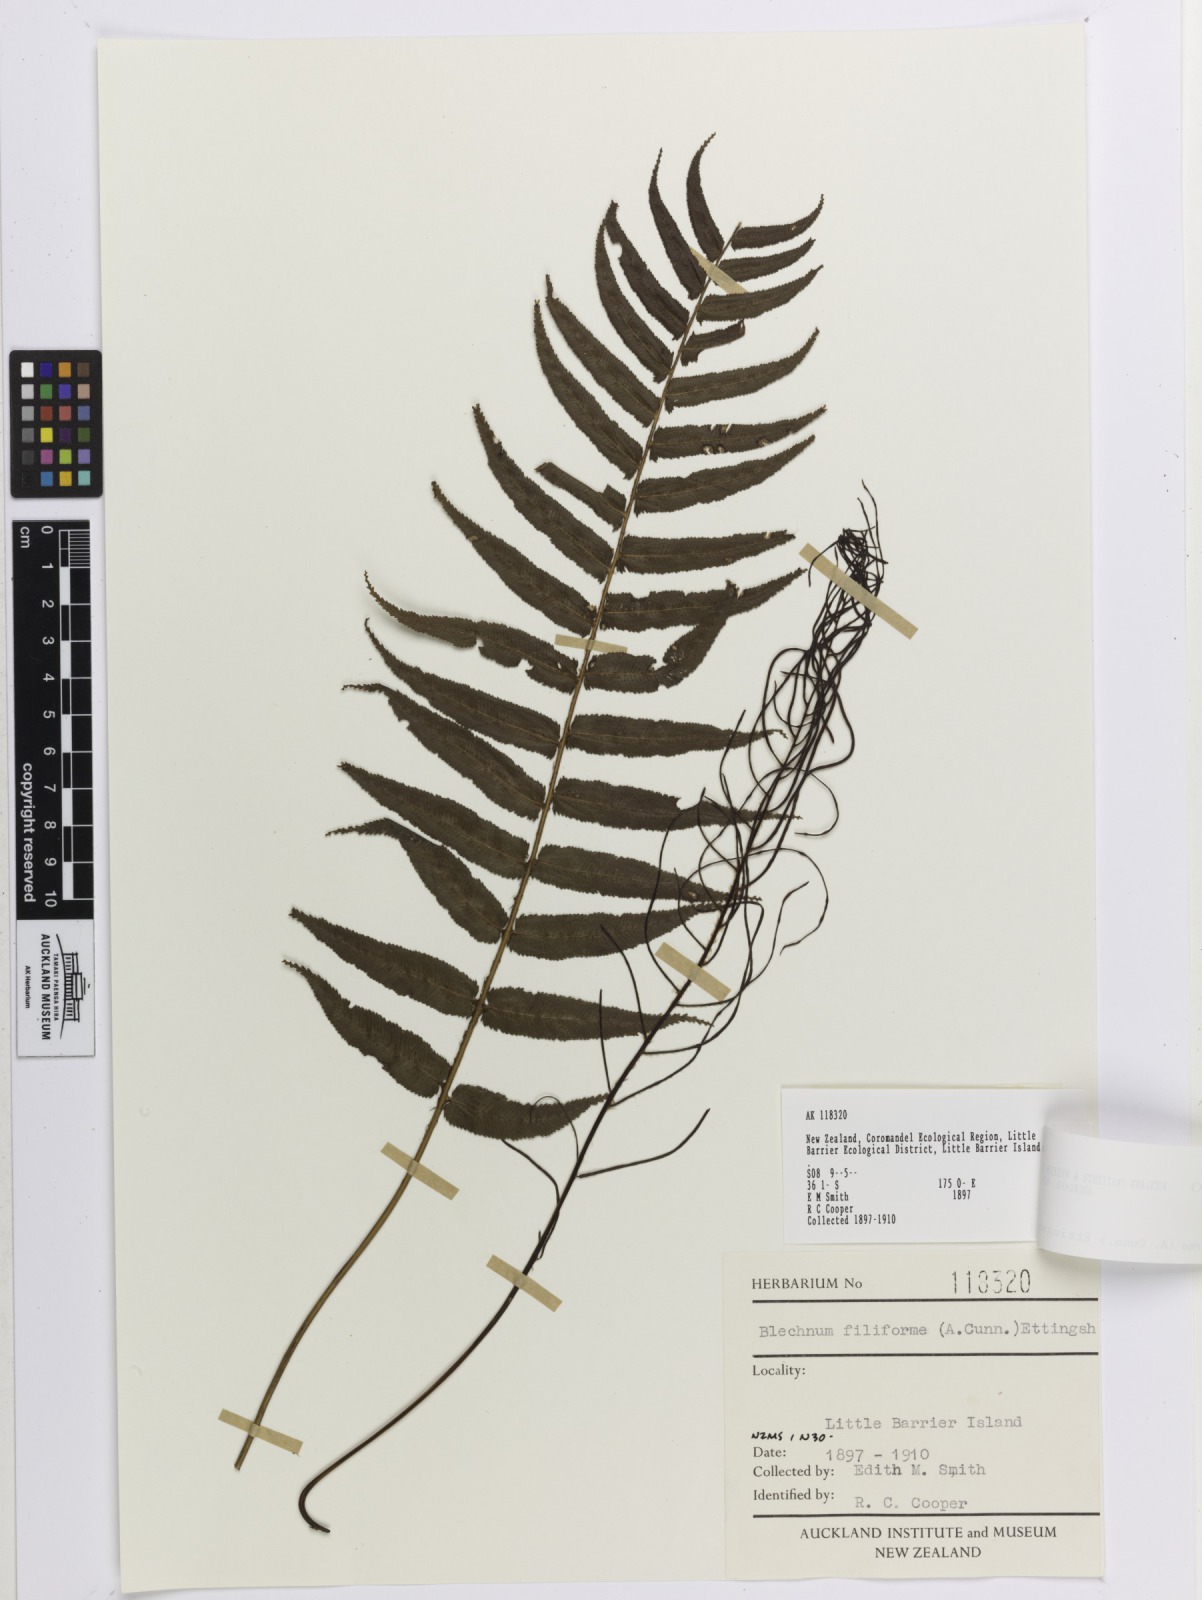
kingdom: Plantae
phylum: Tracheophyta
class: Polypodiopsida
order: Polypodiales
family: Blechnaceae
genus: Icarus
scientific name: Icarus filiformis
